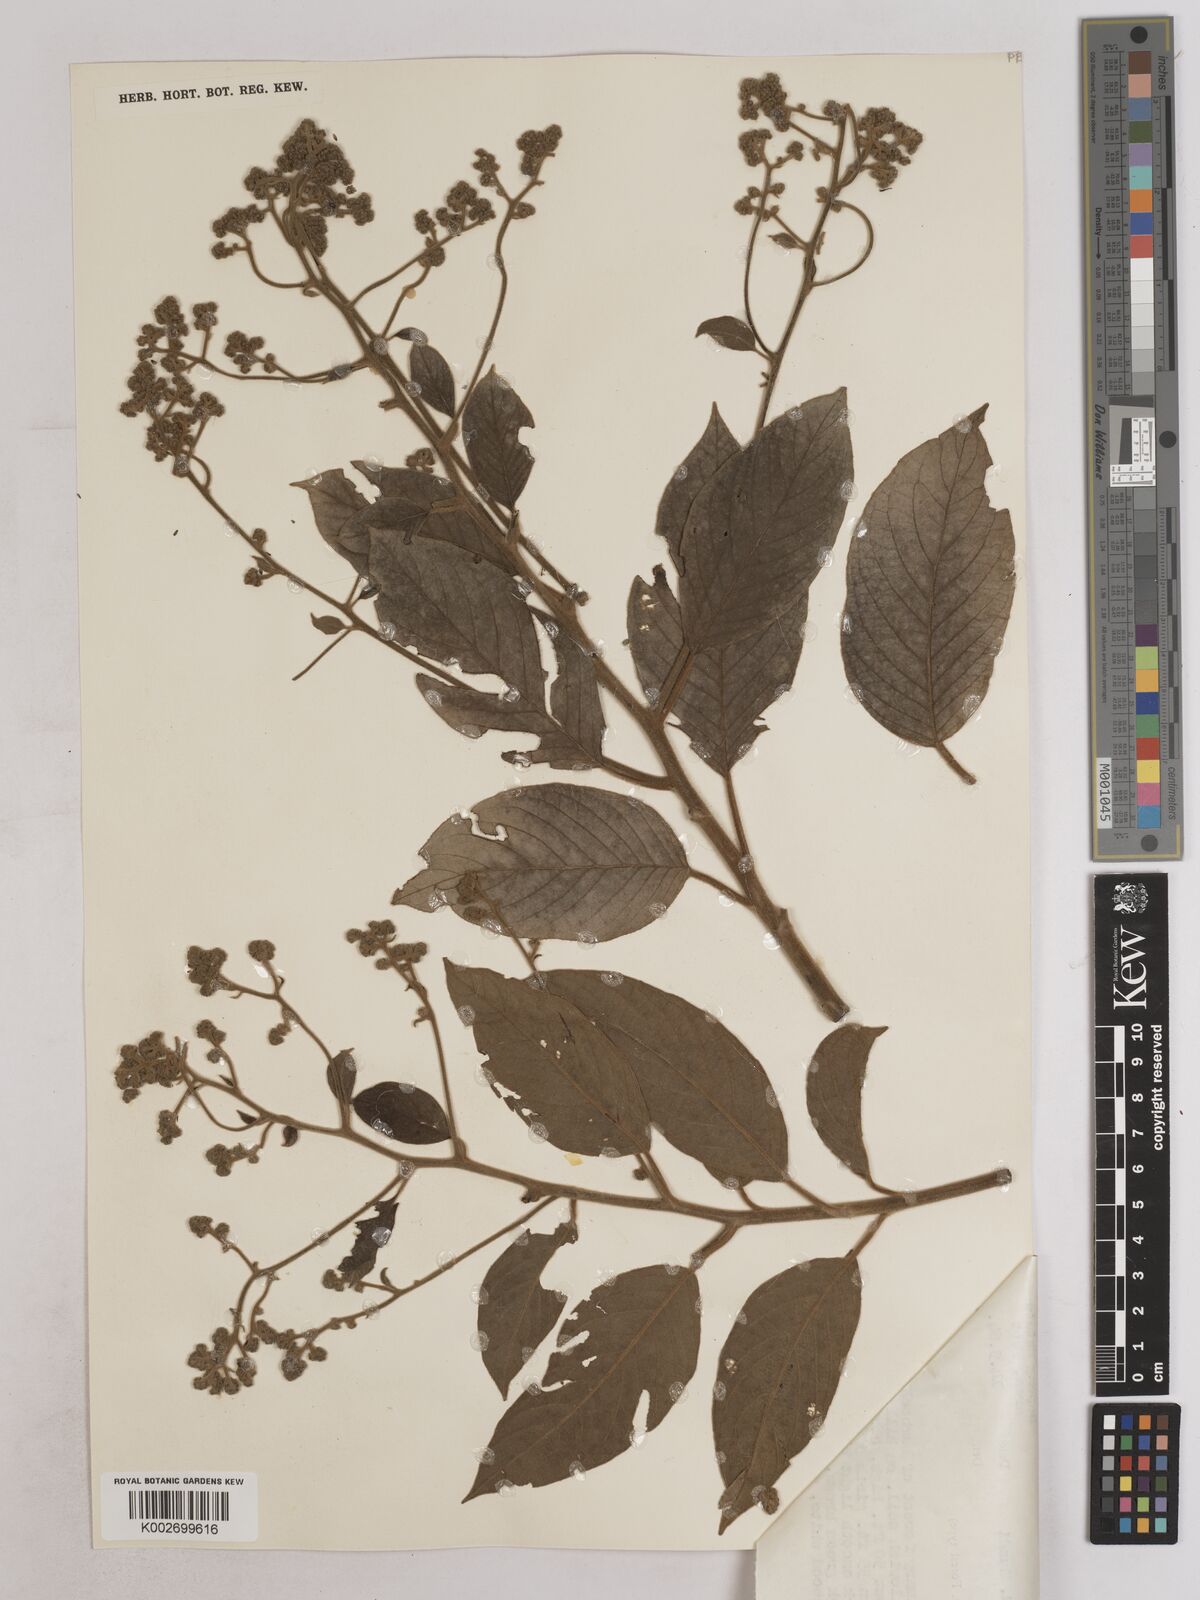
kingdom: Plantae
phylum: Tracheophyta
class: Magnoliopsida
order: Asterales
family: Asteraceae
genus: Strobocalyx
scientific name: Strobocalyx arborea
